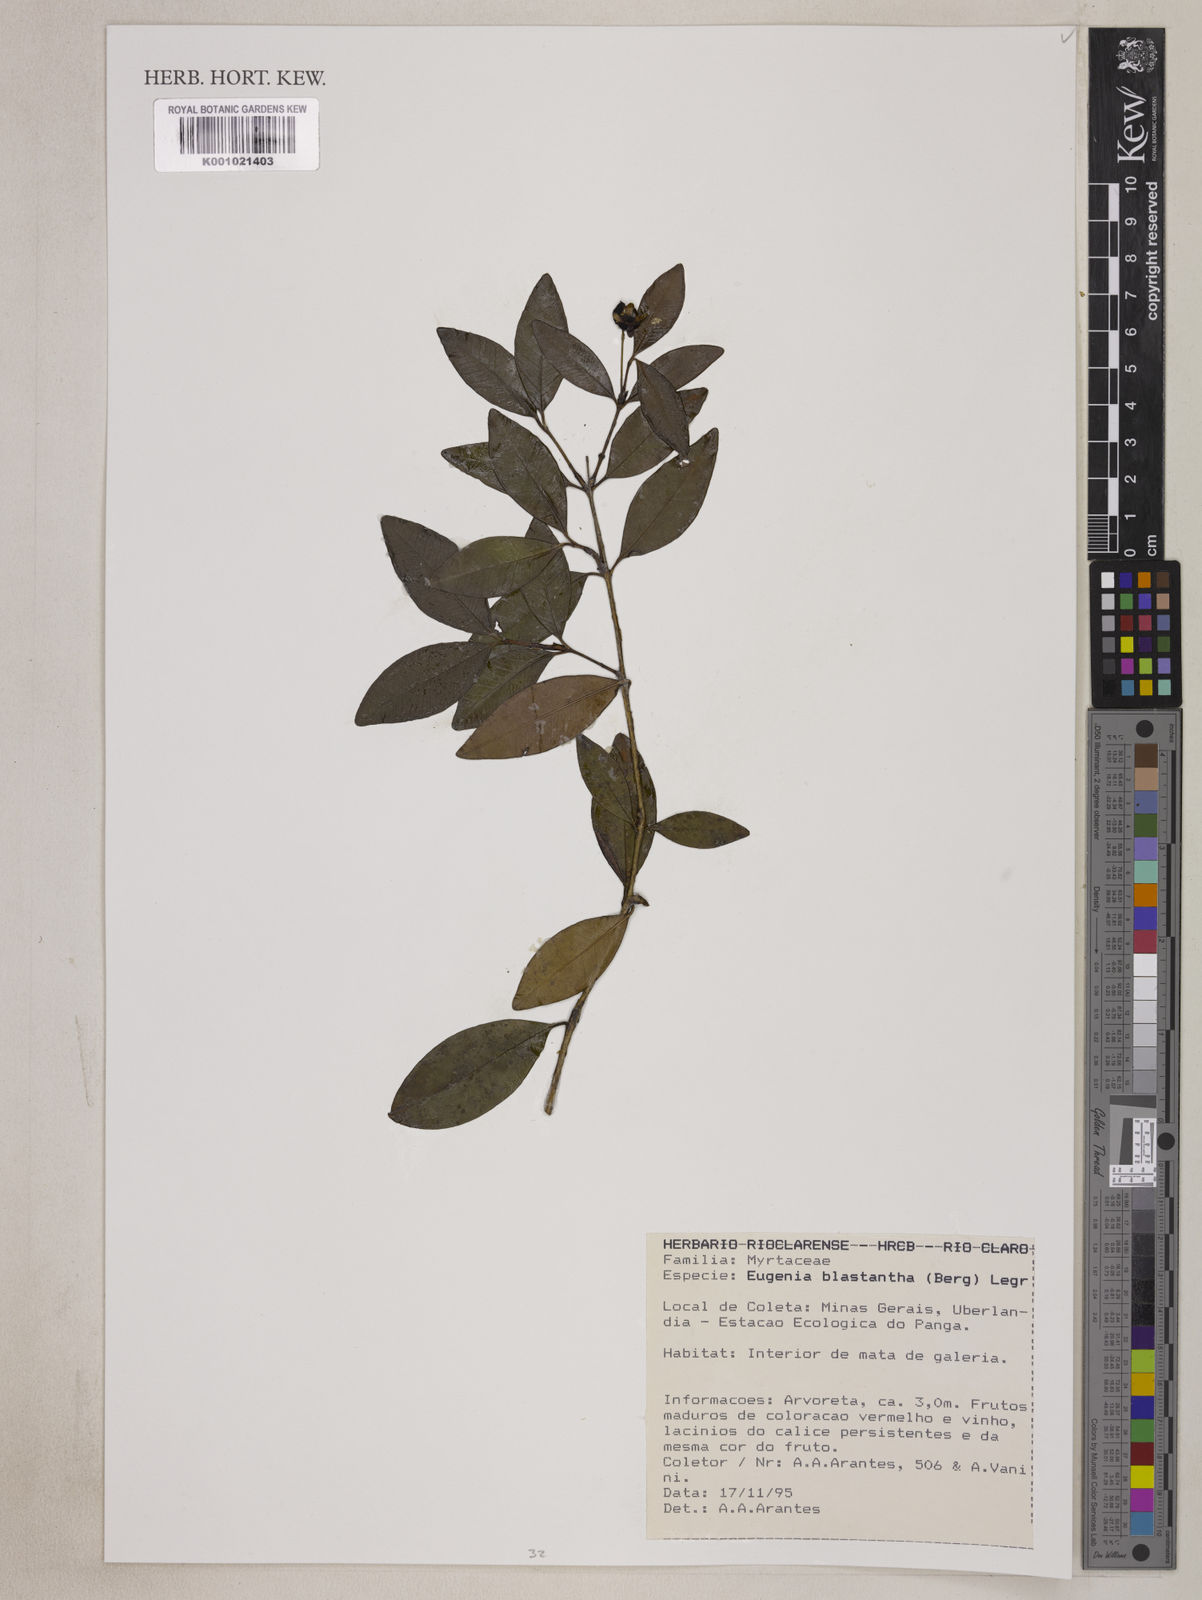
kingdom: Plantae
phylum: Tracheophyta
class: Magnoliopsida
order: Myrtales
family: Myrtaceae
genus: Eugenia
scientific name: Eugenia blastantha
